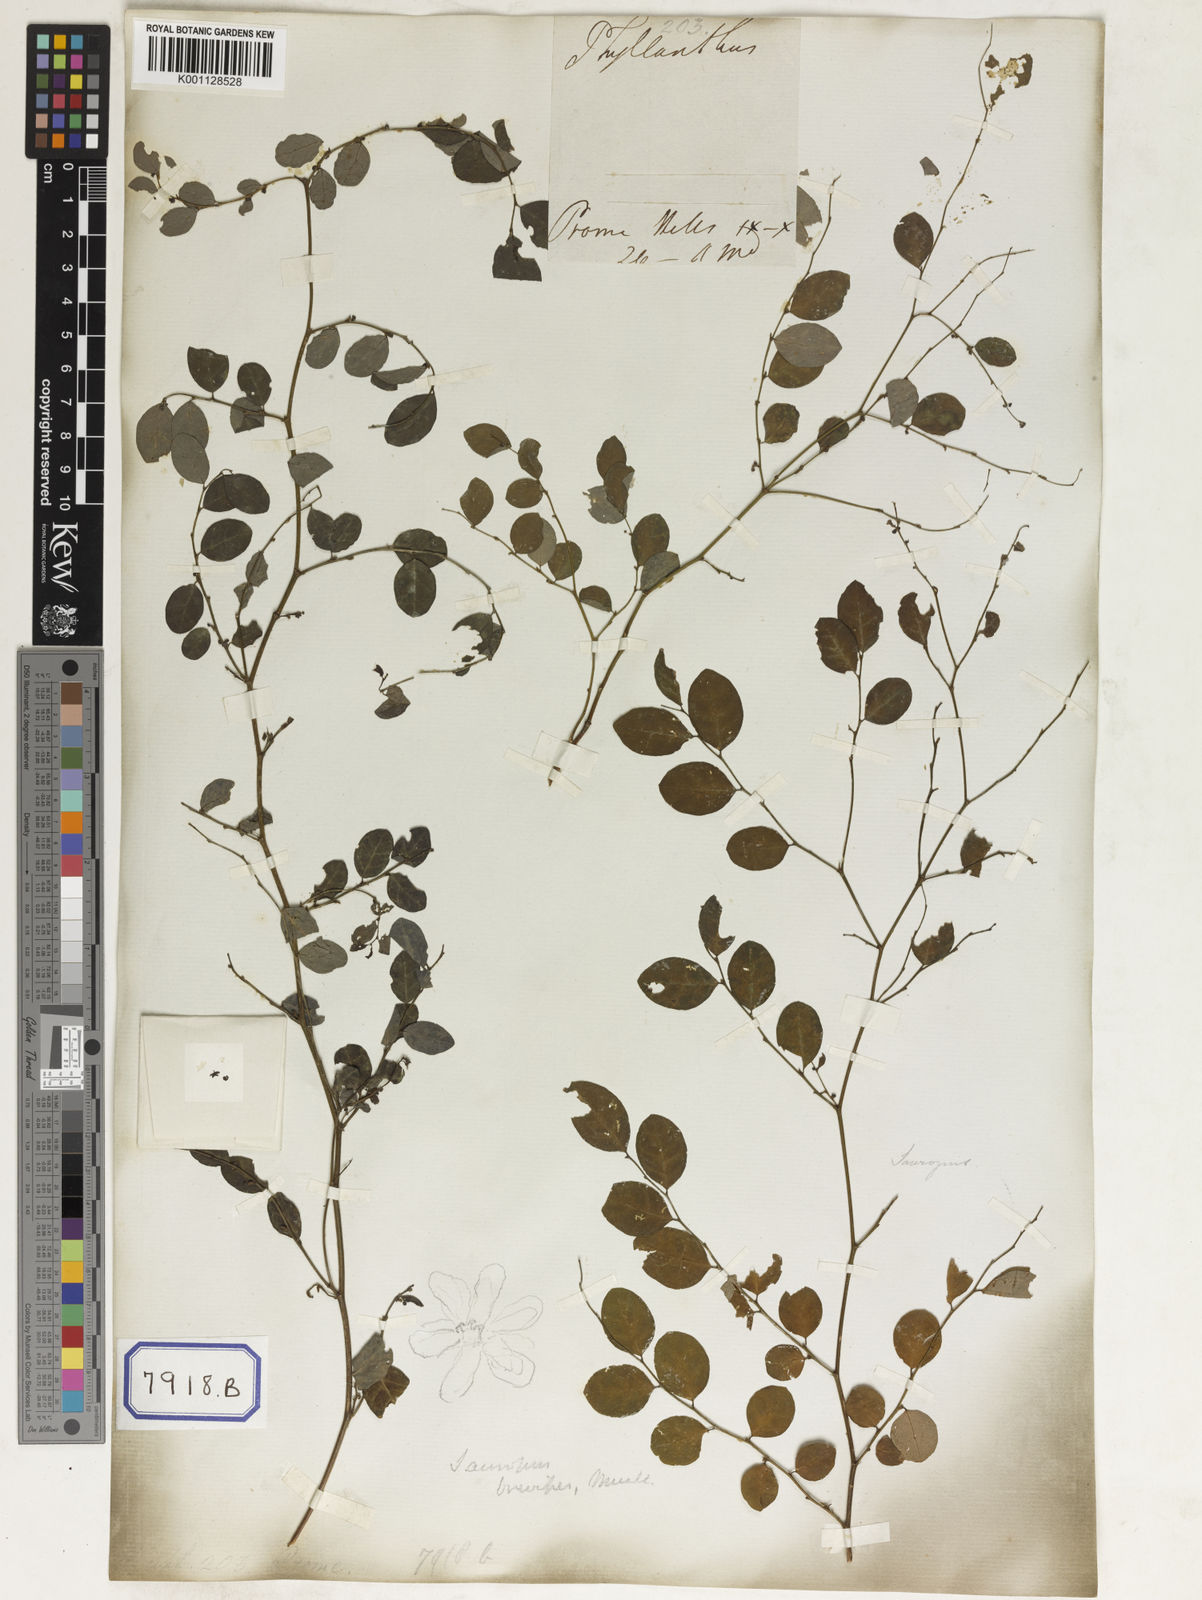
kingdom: Plantae
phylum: Tracheophyta
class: Magnoliopsida
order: Malpighiales
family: Phyllanthaceae
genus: Phyllanthus
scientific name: Phyllanthus
